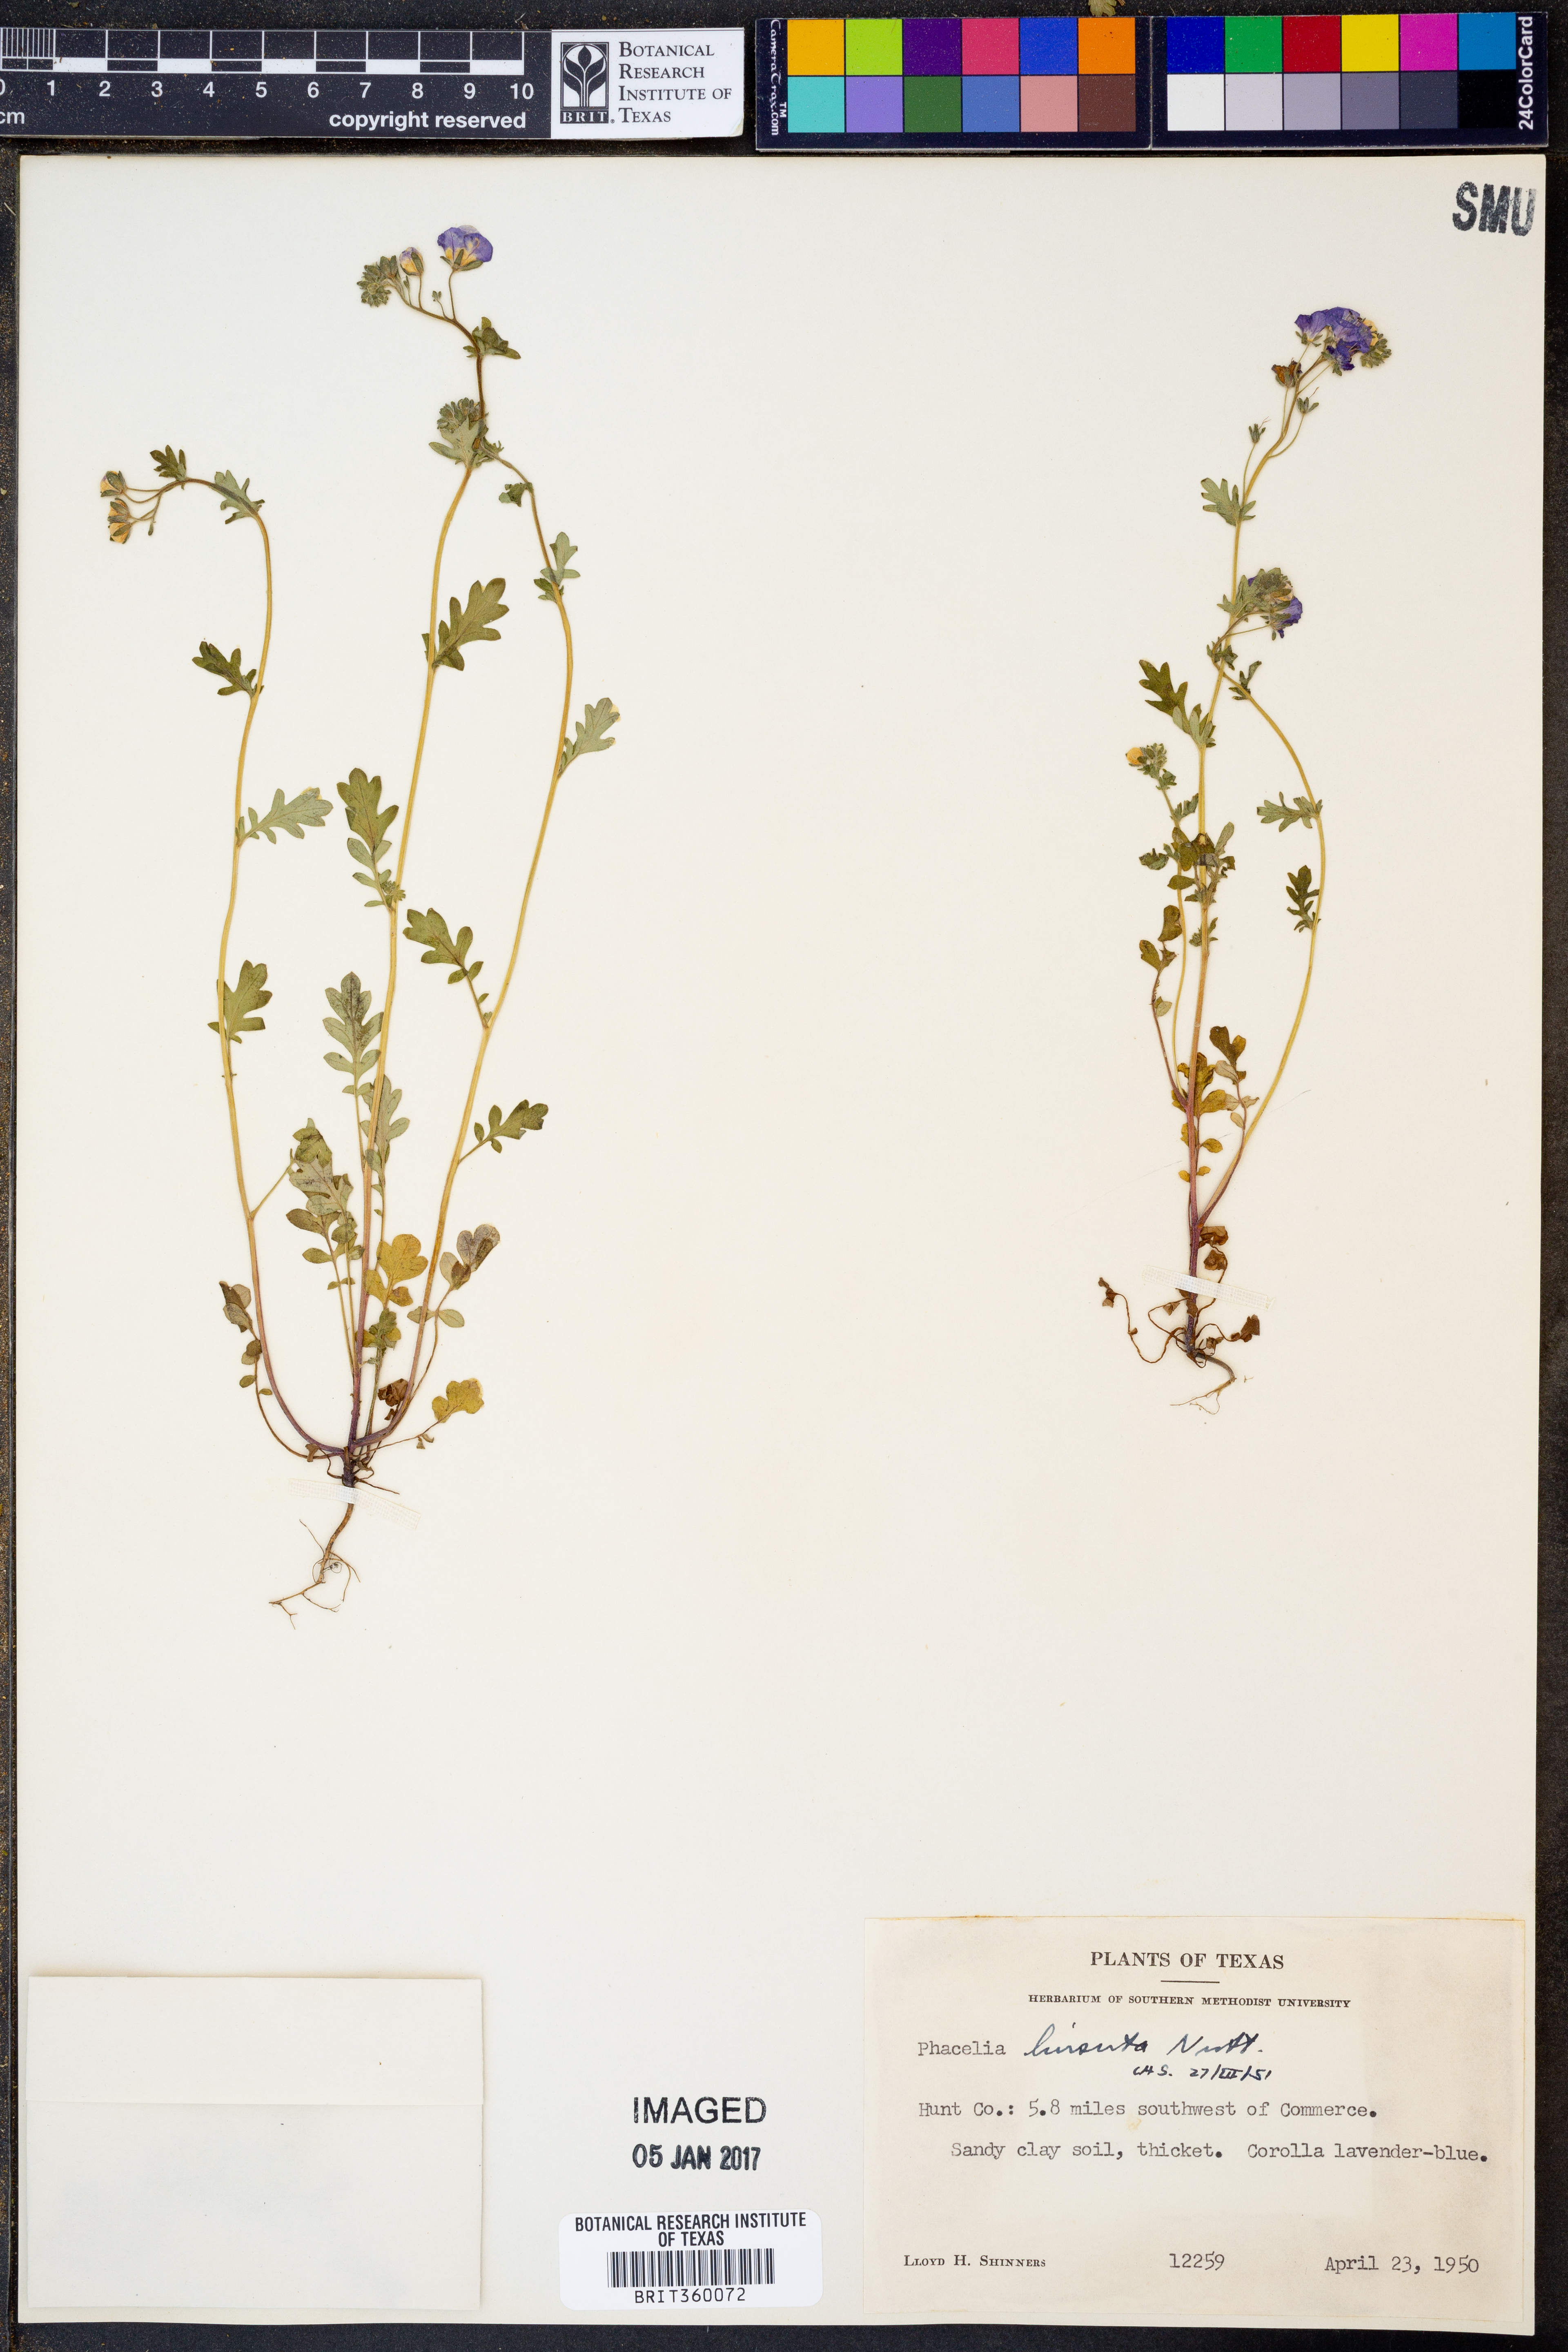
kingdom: Plantae
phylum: Tracheophyta
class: Magnoliopsida
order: Boraginales
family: Hydrophyllaceae
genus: Phacelia
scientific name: Phacelia hirsuta
